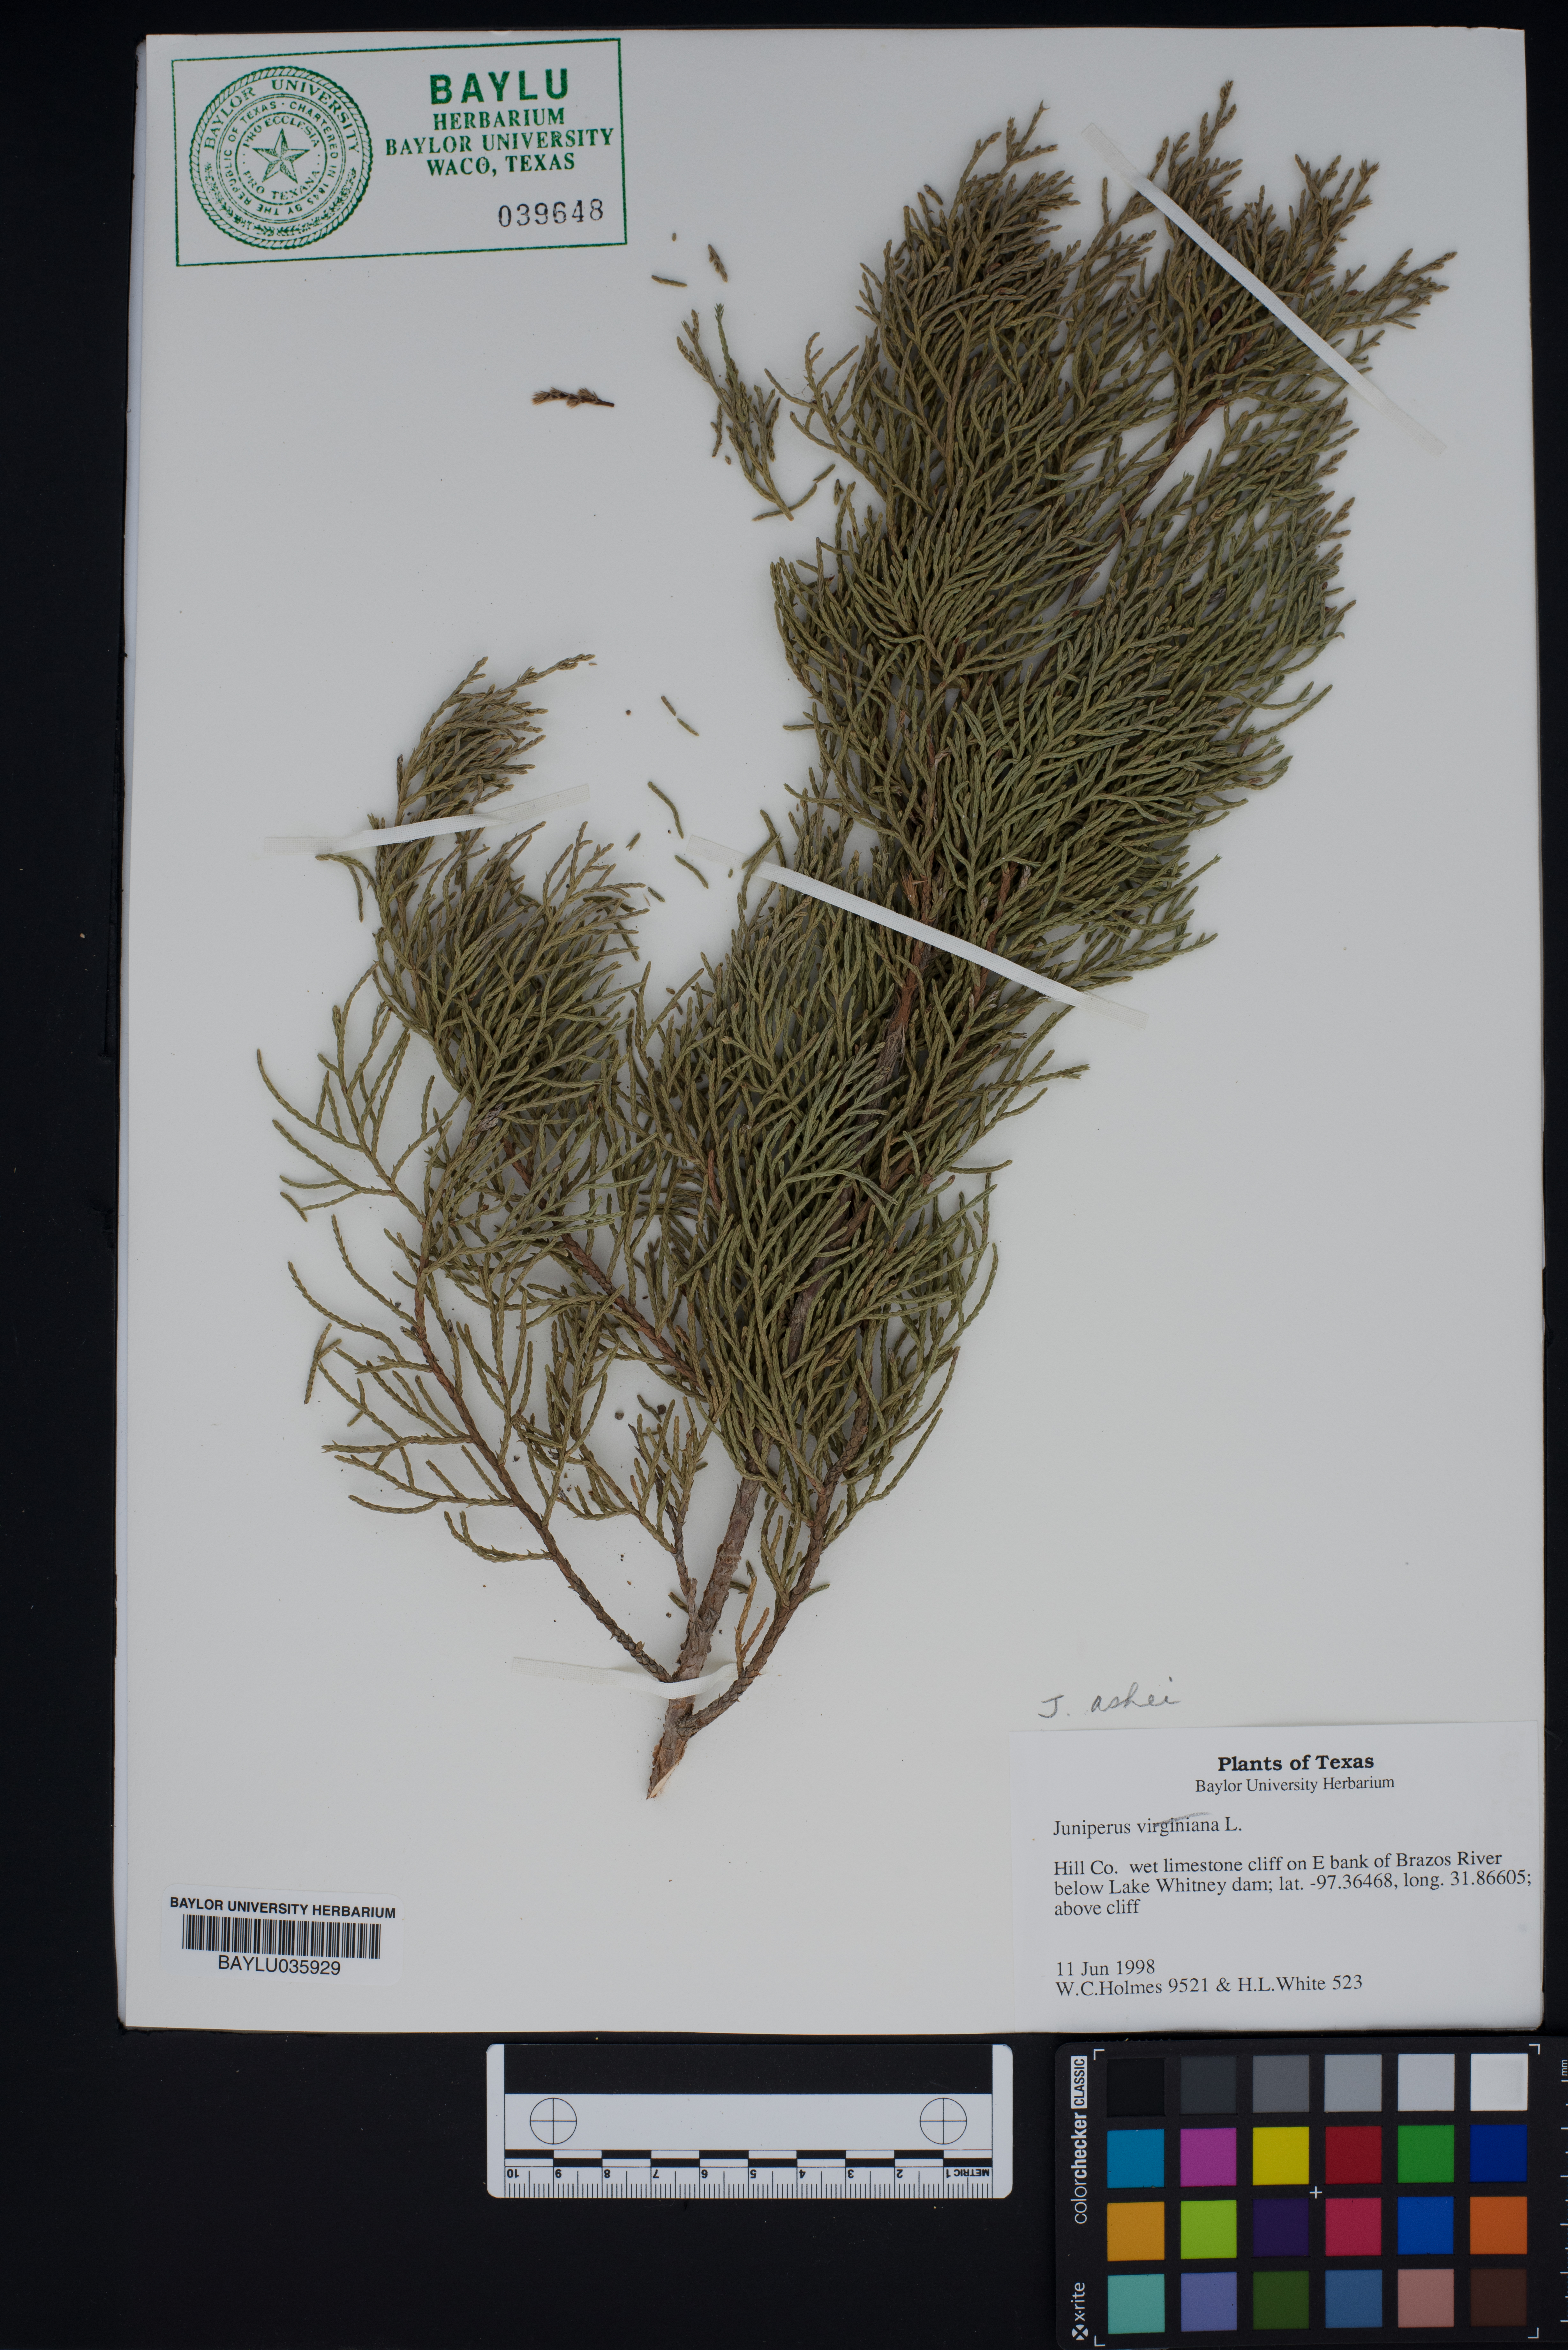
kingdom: Plantae
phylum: Tracheophyta
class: Pinopsida
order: Pinales
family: Cupressaceae
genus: Juniperus
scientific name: Juniperus ashei
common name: Mexican juniper
